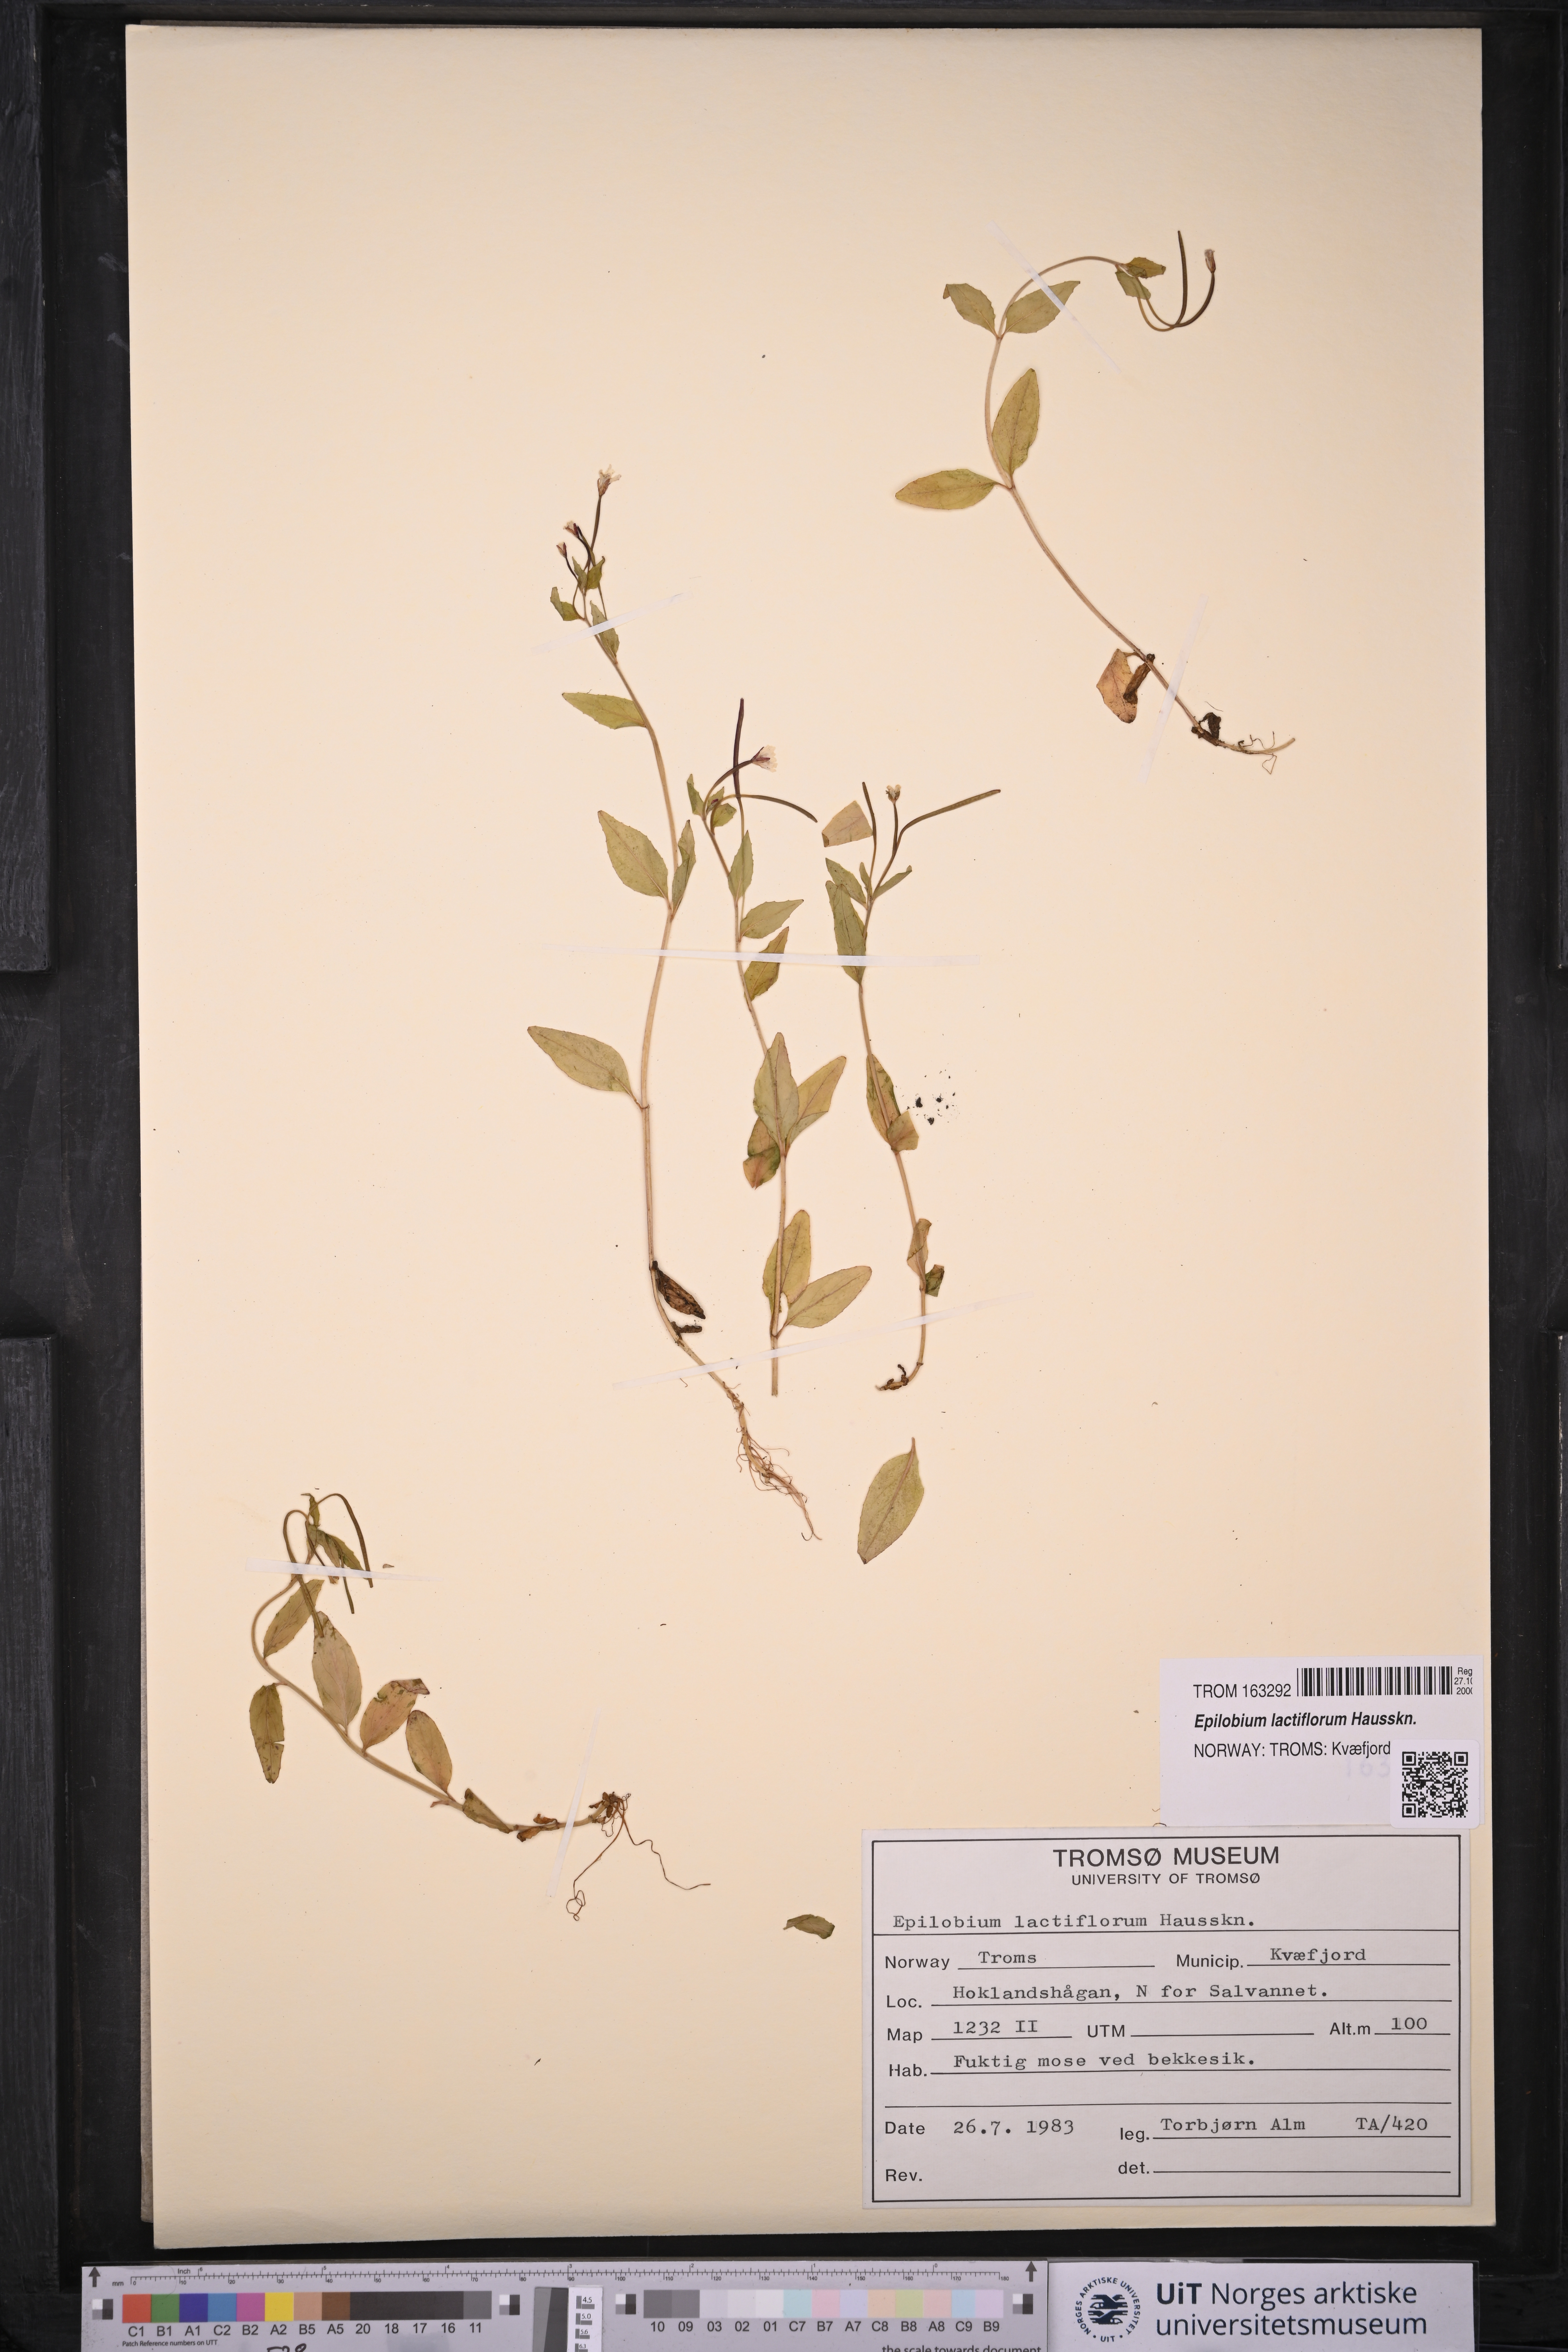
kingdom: Plantae
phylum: Tracheophyta
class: Magnoliopsida
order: Myrtales
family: Onagraceae
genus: Epilobium
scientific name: Epilobium lactiflorum
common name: Milkflower willowherb
